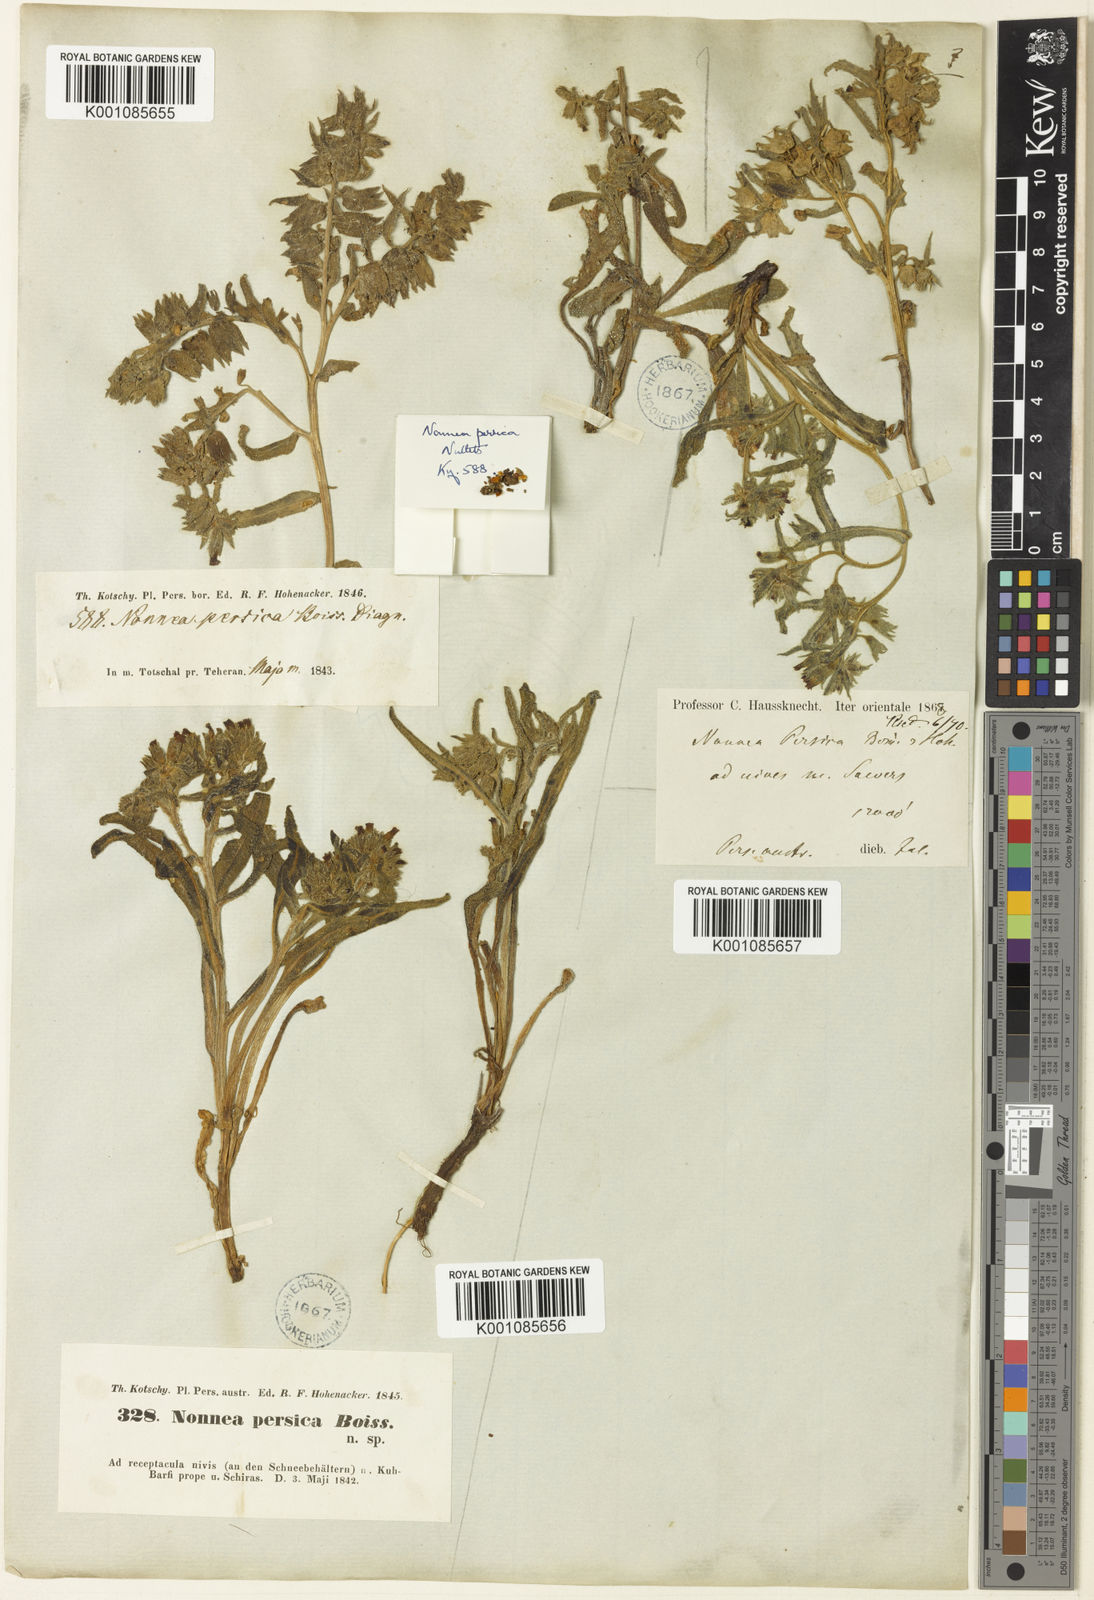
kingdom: Plantae
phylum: Tracheophyta
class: Magnoliopsida
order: Boraginales
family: Boraginaceae
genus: Nonea
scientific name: Nonea persica
